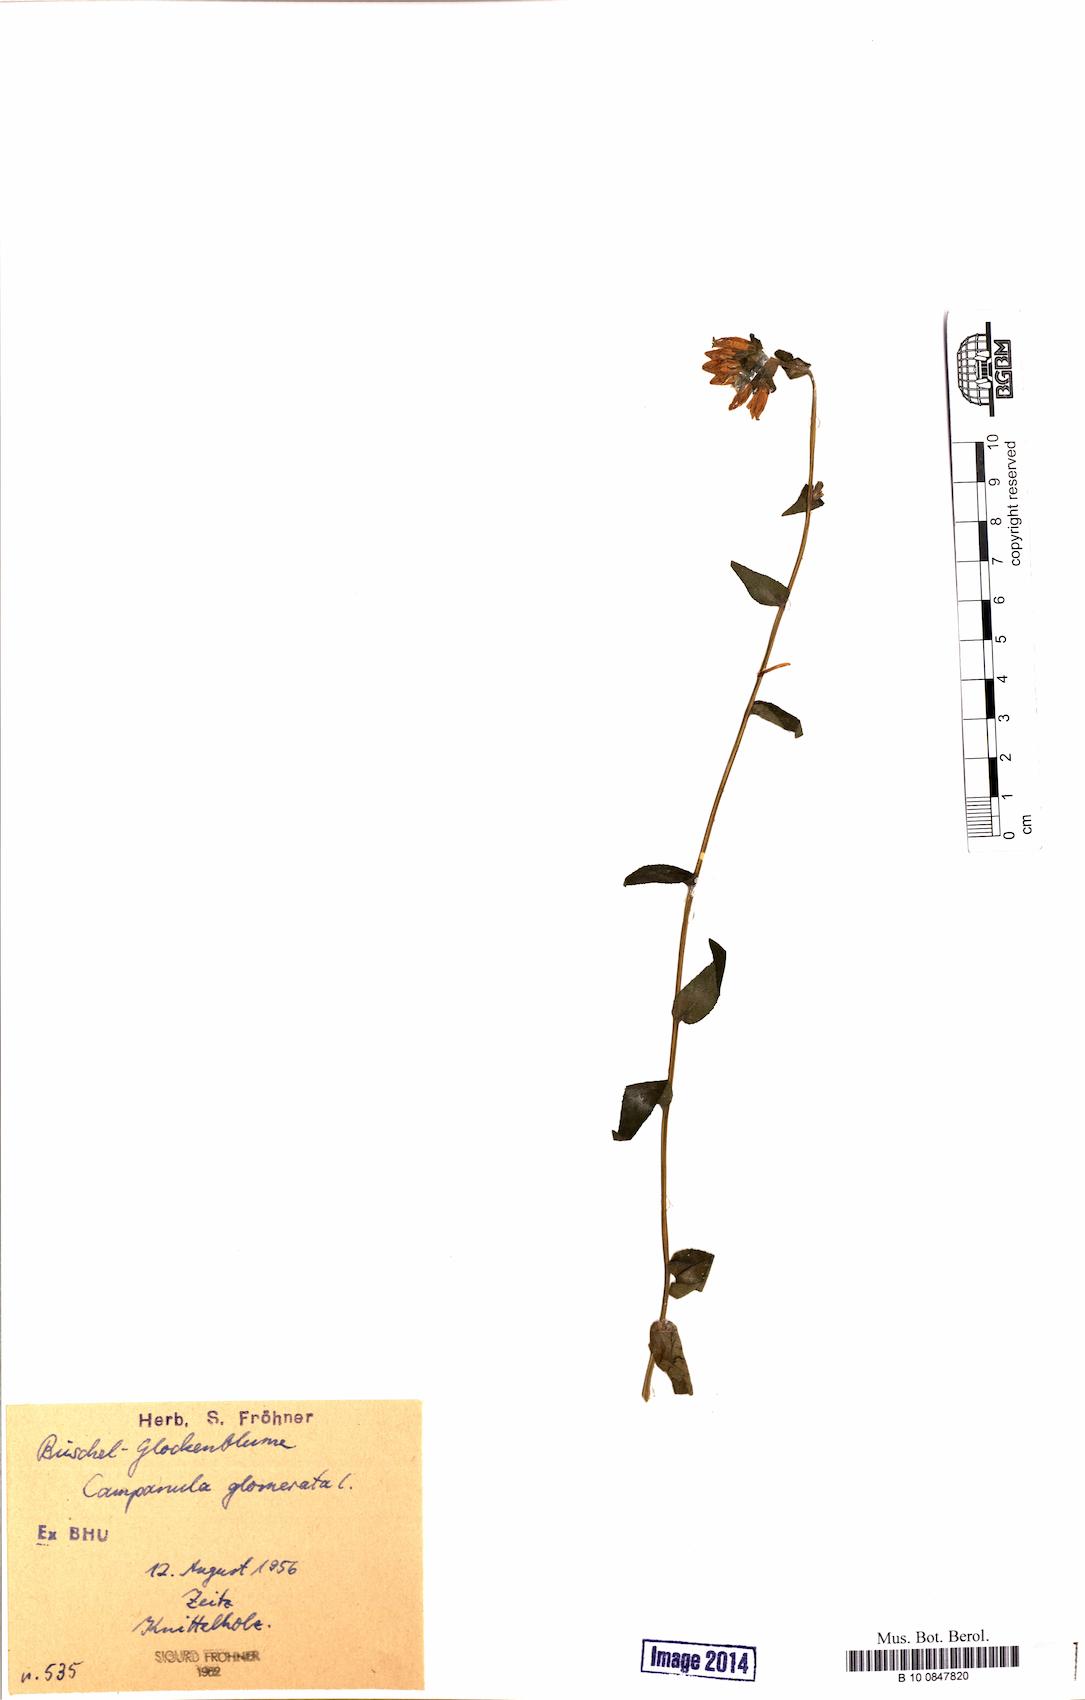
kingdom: Plantae
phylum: Tracheophyta
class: Magnoliopsida
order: Asterales
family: Campanulaceae
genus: Campanula
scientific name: Campanula glomerata
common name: Clustered bellflower
